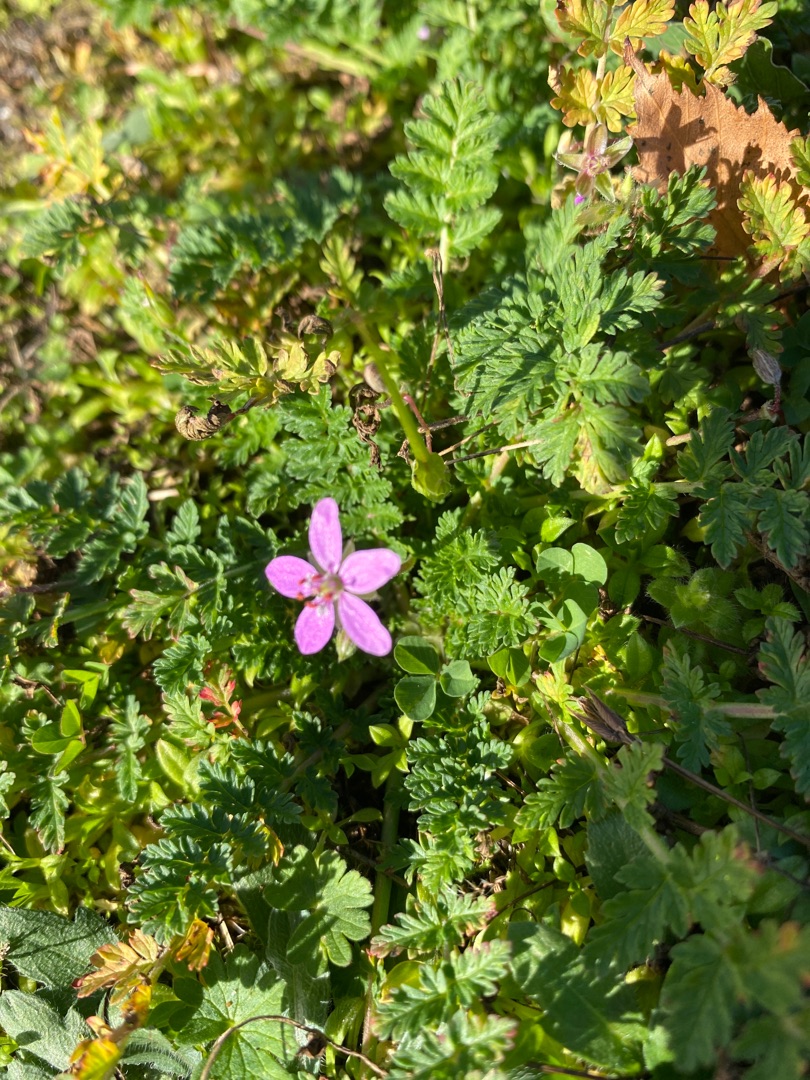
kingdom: Plantae
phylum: Tracheophyta
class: Magnoliopsida
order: Geraniales
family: Geraniaceae
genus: Erodium
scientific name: Erodium cicutarium
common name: Hejrenæb
